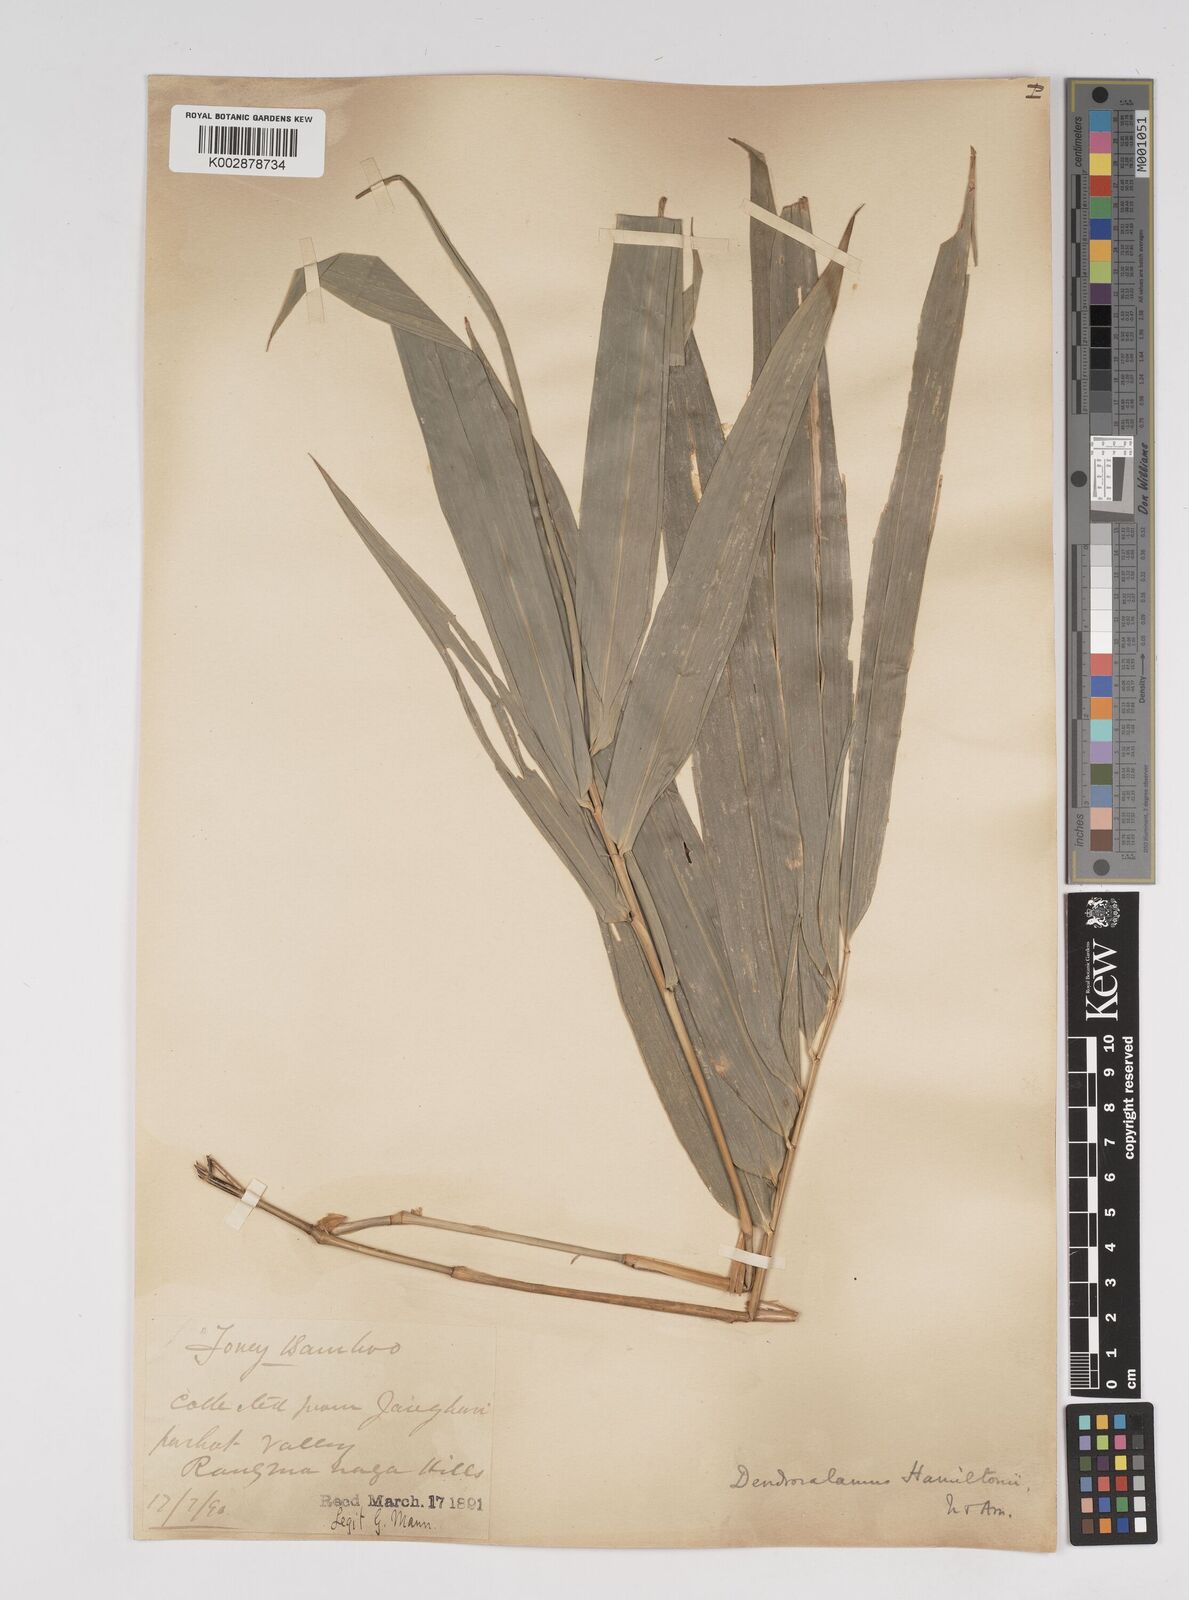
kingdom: Plantae
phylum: Tracheophyta
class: Liliopsida
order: Poales
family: Poaceae
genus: Dendrocalamus
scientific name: Dendrocalamus hamiltonii
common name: Tama bamboo
